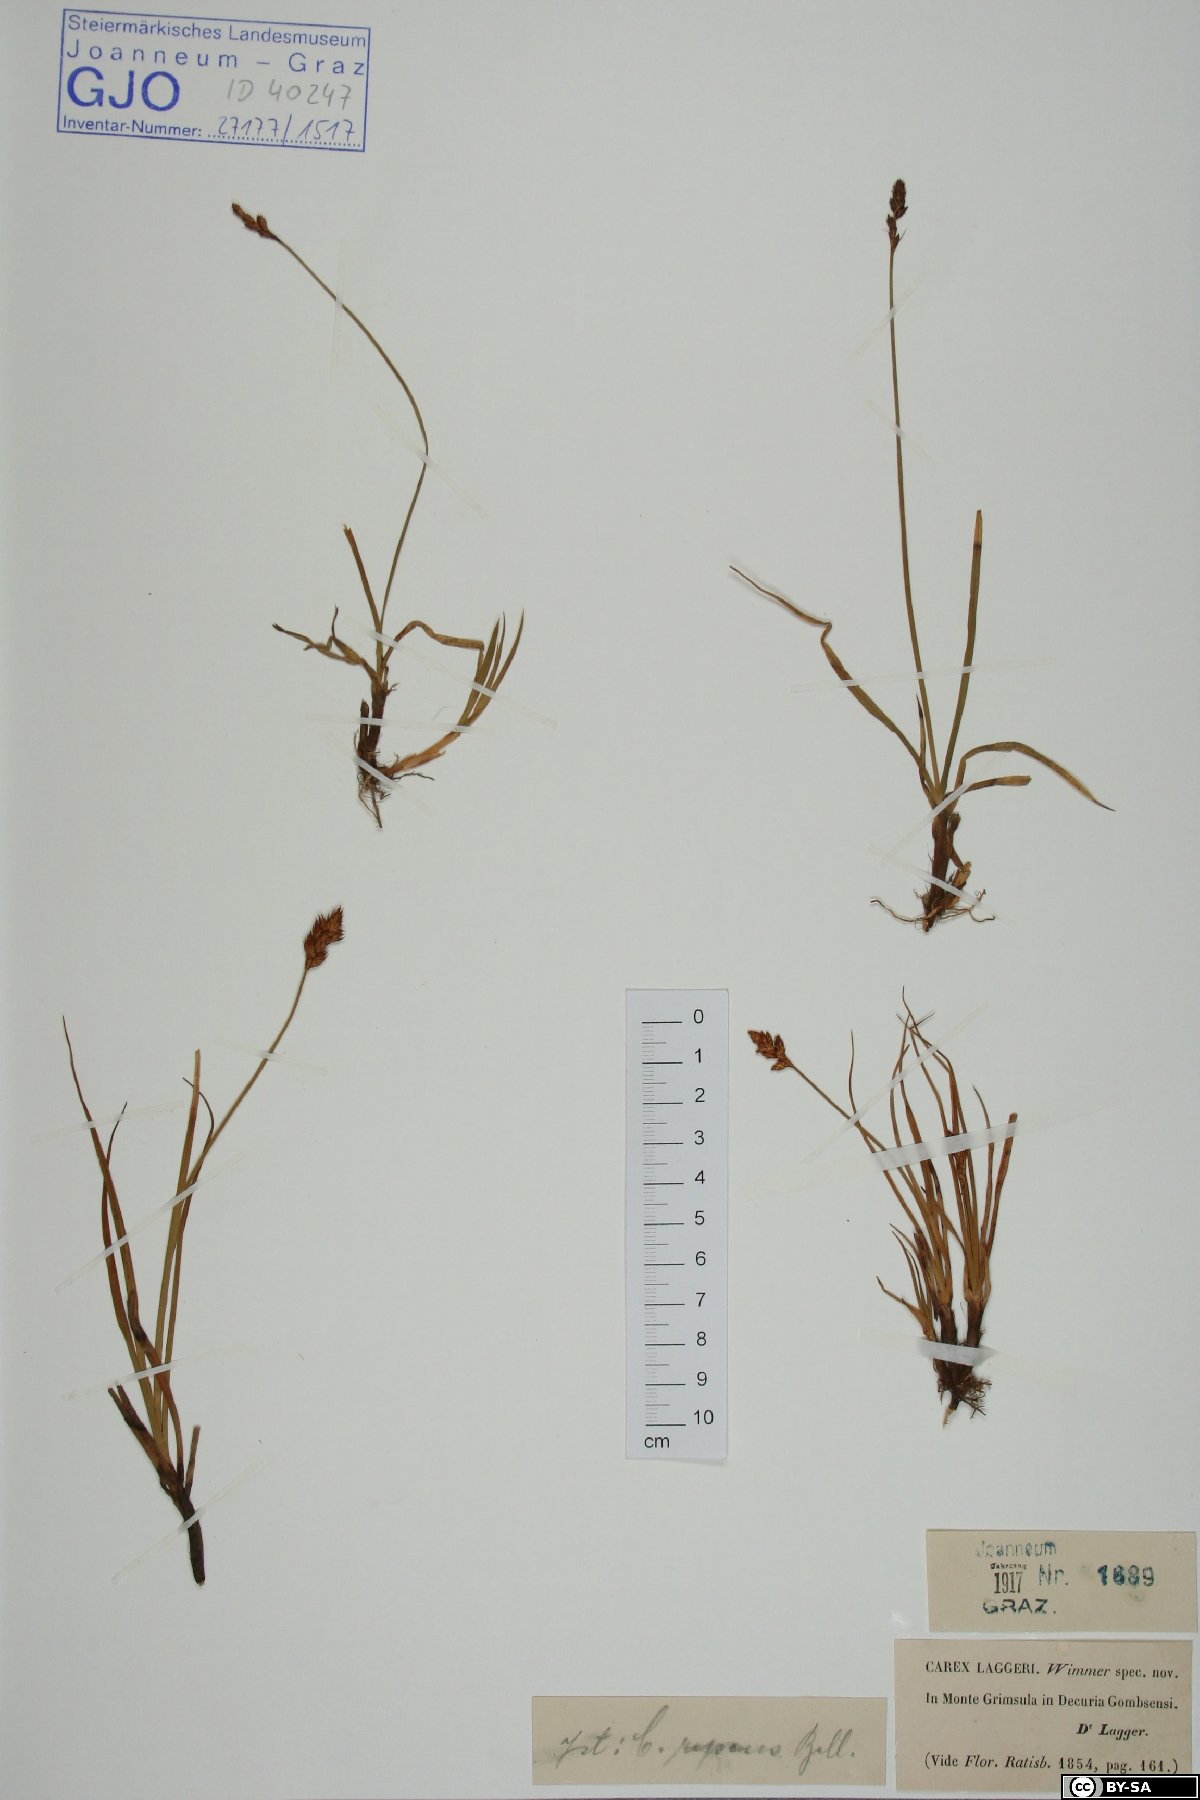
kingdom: Plantae
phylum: Tracheophyta
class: Liliopsida
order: Poales
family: Cyperaceae
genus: Carex
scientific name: Carex laggeri
